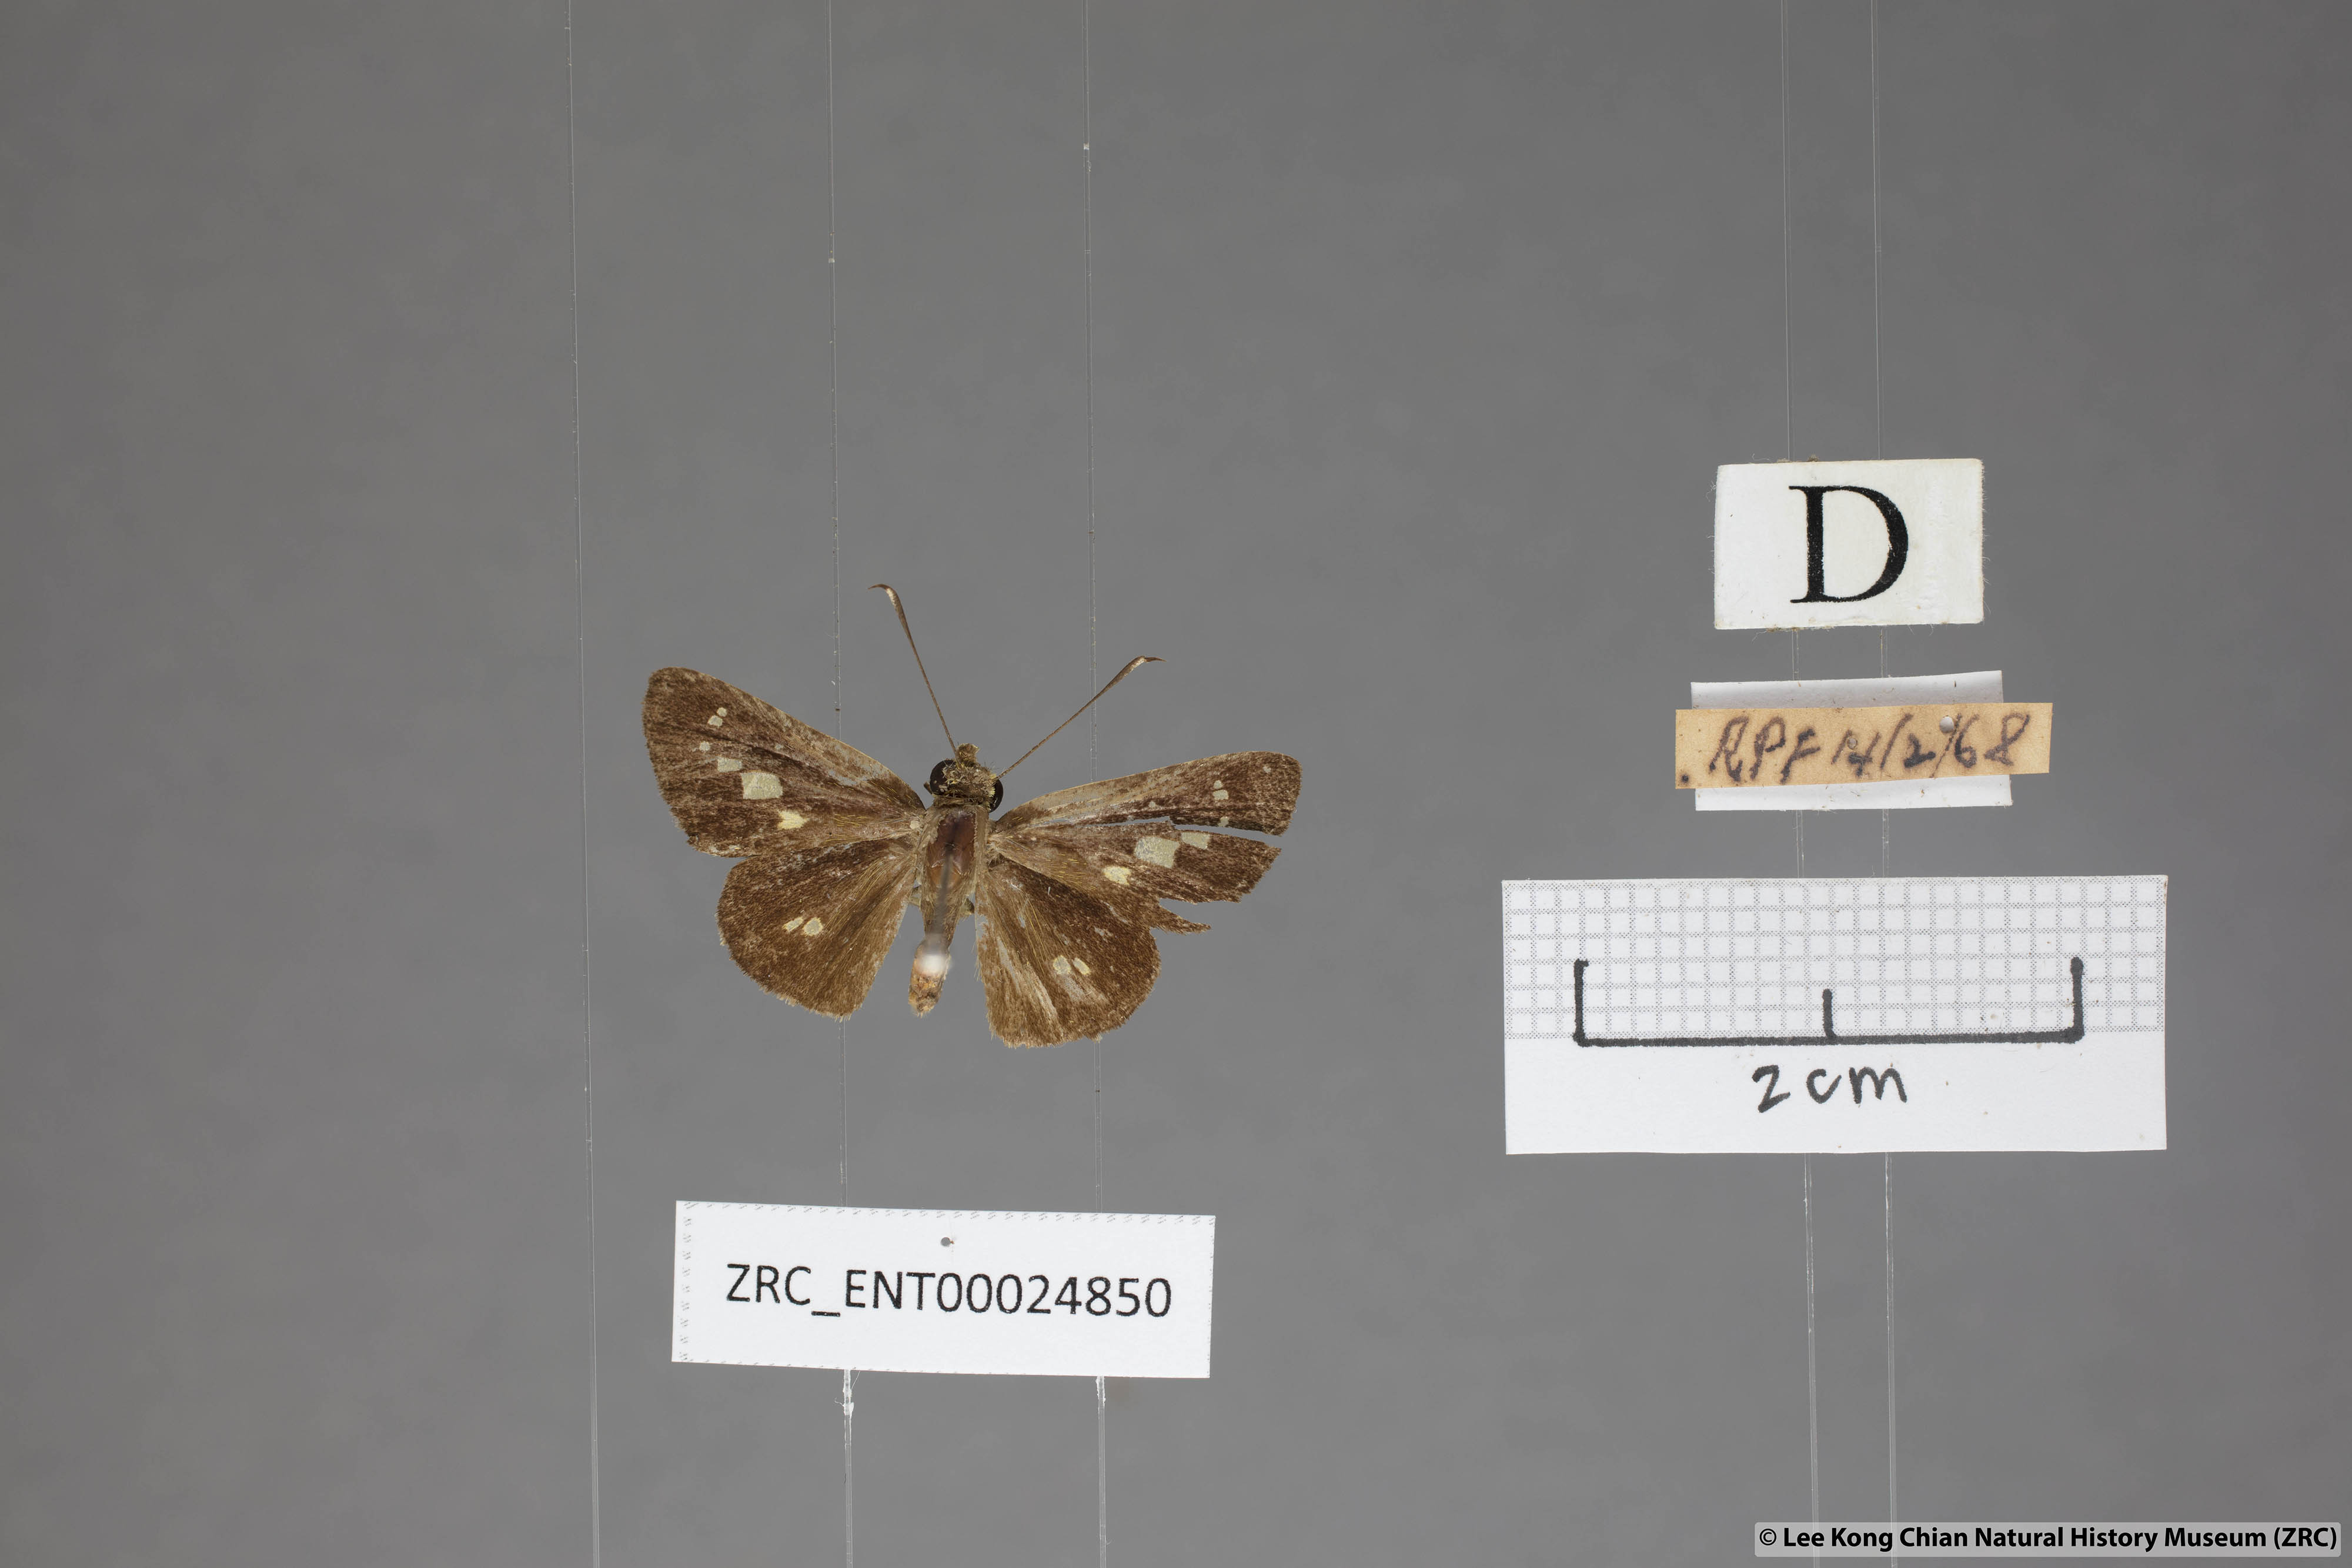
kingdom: Animalia
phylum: Arthropoda
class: Insecta
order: Lepidoptera
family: Hesperiidae
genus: Isma
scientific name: Isma bononia
